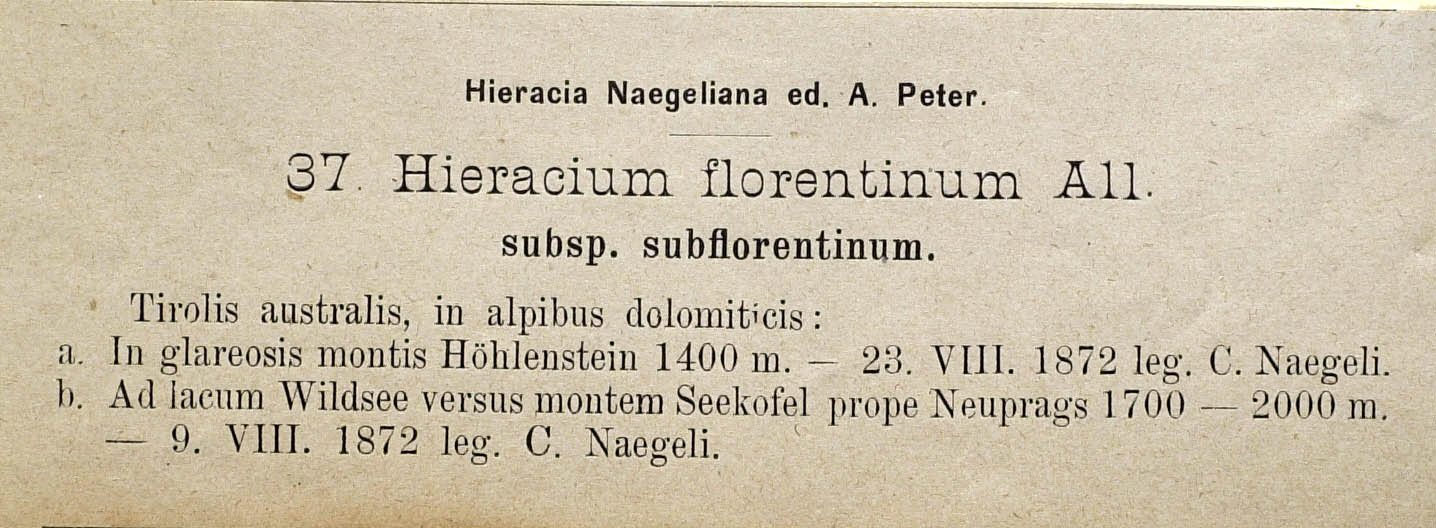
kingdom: Plantae
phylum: Tracheophyta
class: Magnoliopsida
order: Asterales
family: Asteraceae
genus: Pilosella
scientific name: Pilosella piloselloides
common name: Glaucous king-devil
